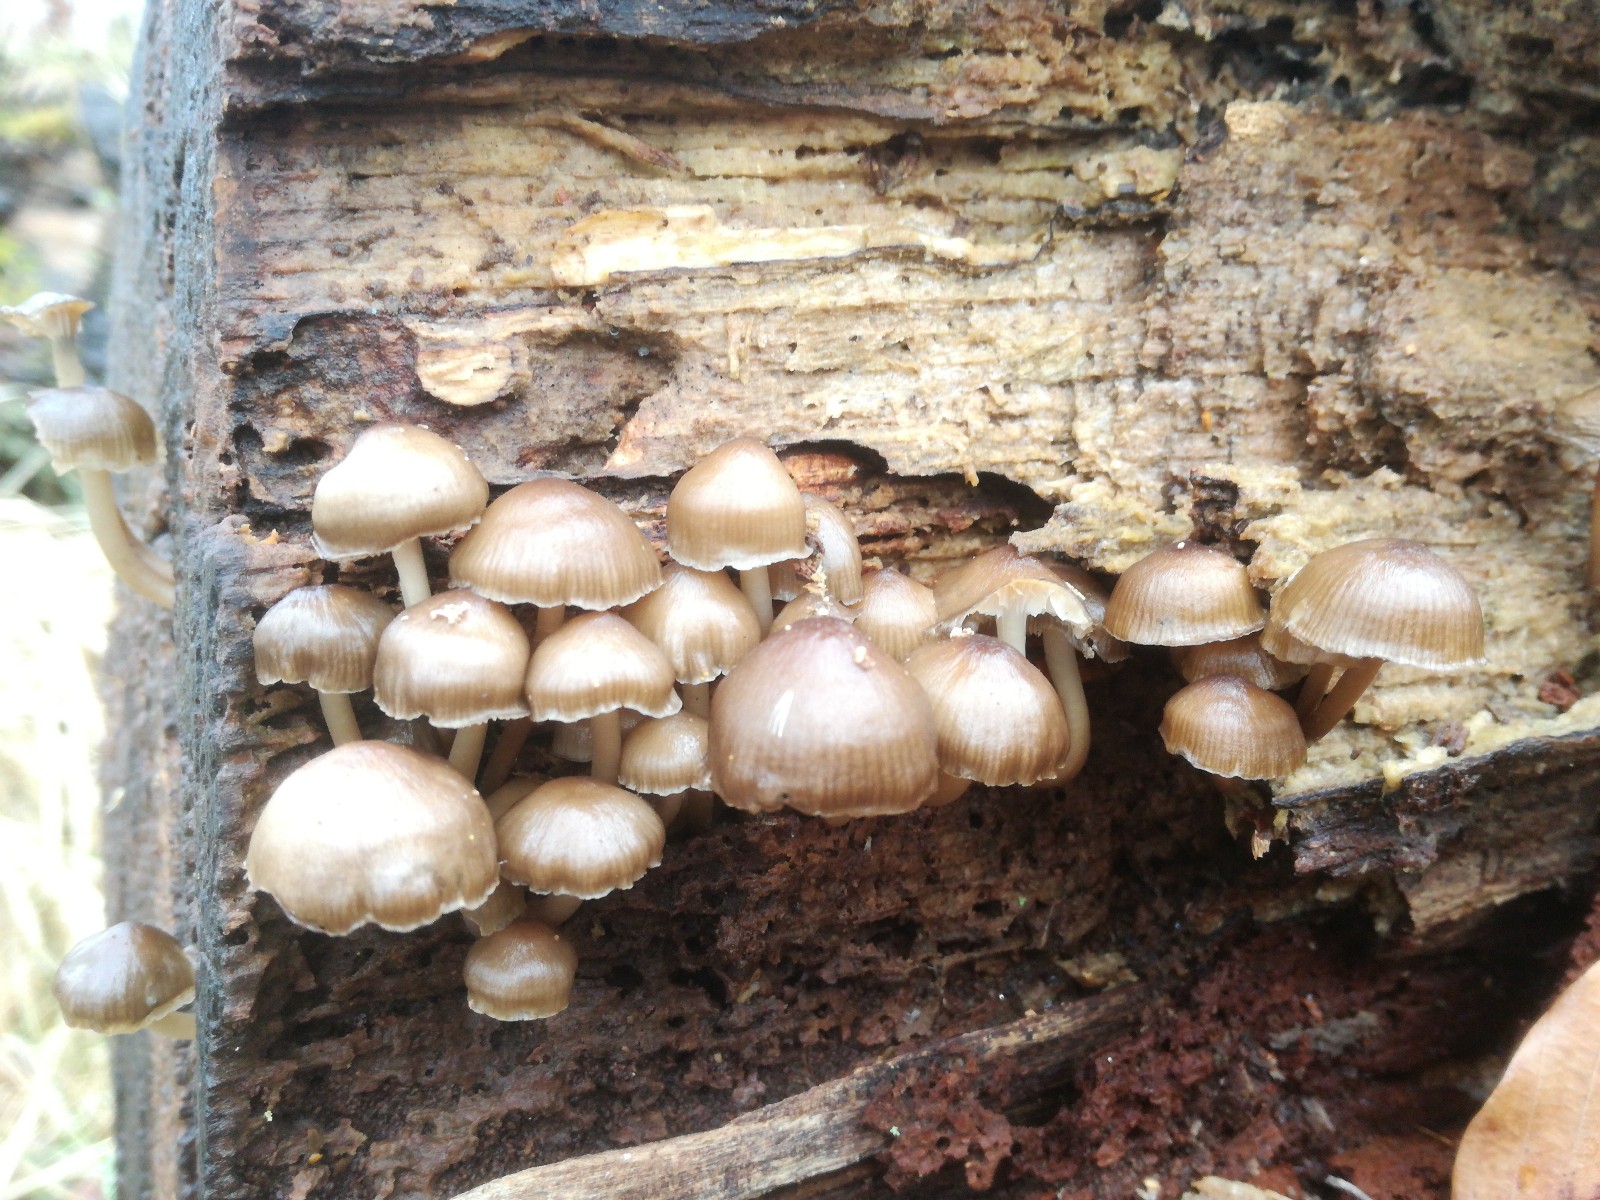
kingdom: Fungi
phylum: Basidiomycota
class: Agaricomycetes
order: Agaricales
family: Mycenaceae
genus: Mycena
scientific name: Mycena tintinnabulum
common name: vinter-huesvamp
